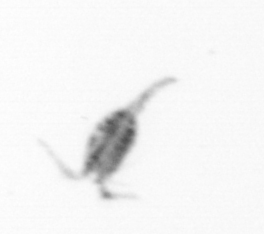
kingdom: Animalia
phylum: Arthropoda
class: Copepoda
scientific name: Copepoda
